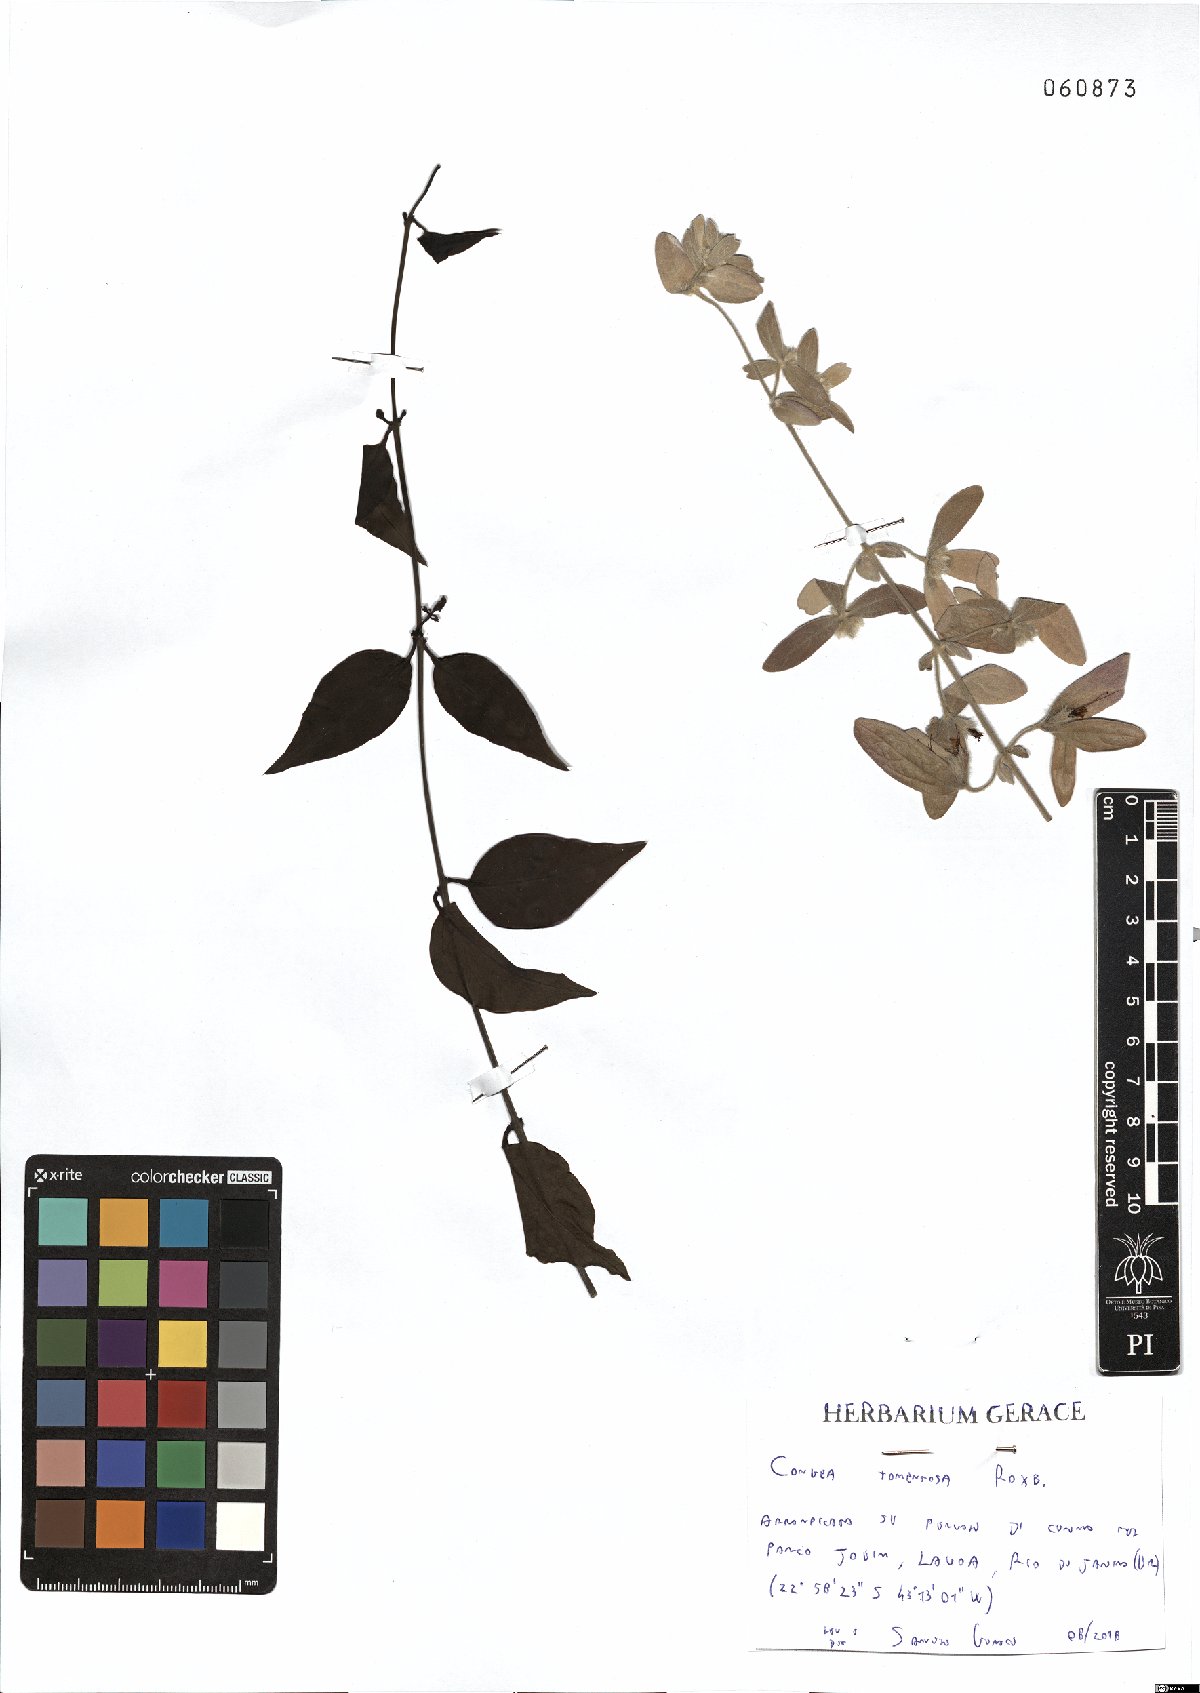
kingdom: Plantae
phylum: Tracheophyta
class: Magnoliopsida
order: Lamiales
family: Lamiaceae
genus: Congea
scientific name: Congea tomentosa
